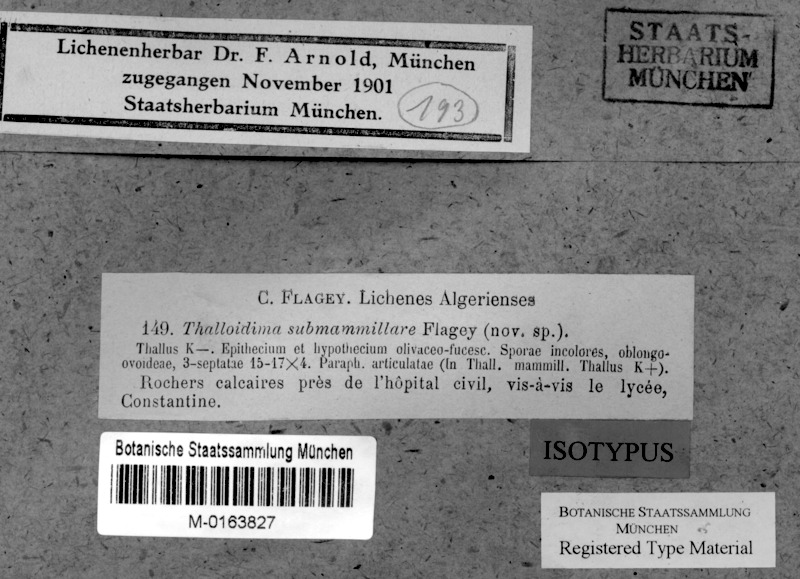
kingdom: Fungi
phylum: Ascomycota
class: Lecanoromycetes
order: Lecideales
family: Porpidiaceae
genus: Porpidinia
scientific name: Porpidinia tumidula
